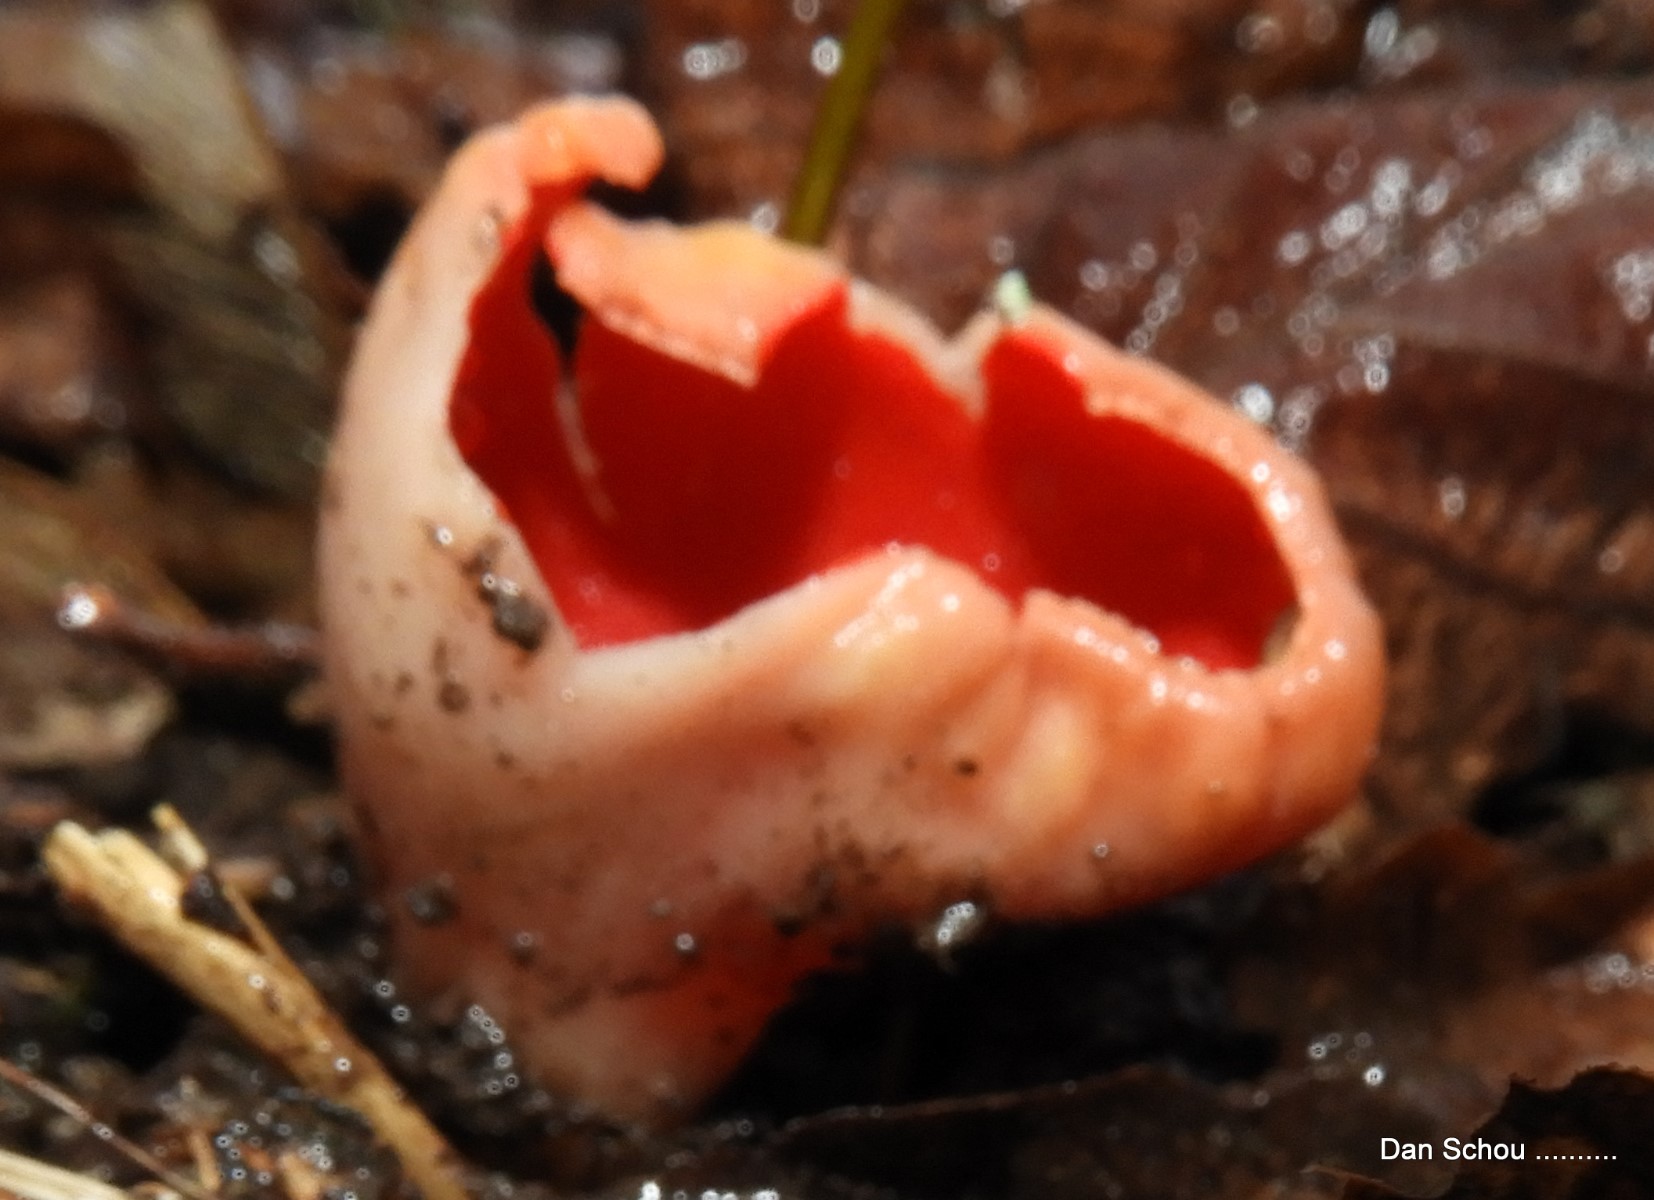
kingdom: Fungi
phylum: Ascomycota
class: Pezizomycetes
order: Pezizales
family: Sarcoscyphaceae
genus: Sarcoscypha
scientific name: Sarcoscypha austriaca
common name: krølhåret pragtbæger
